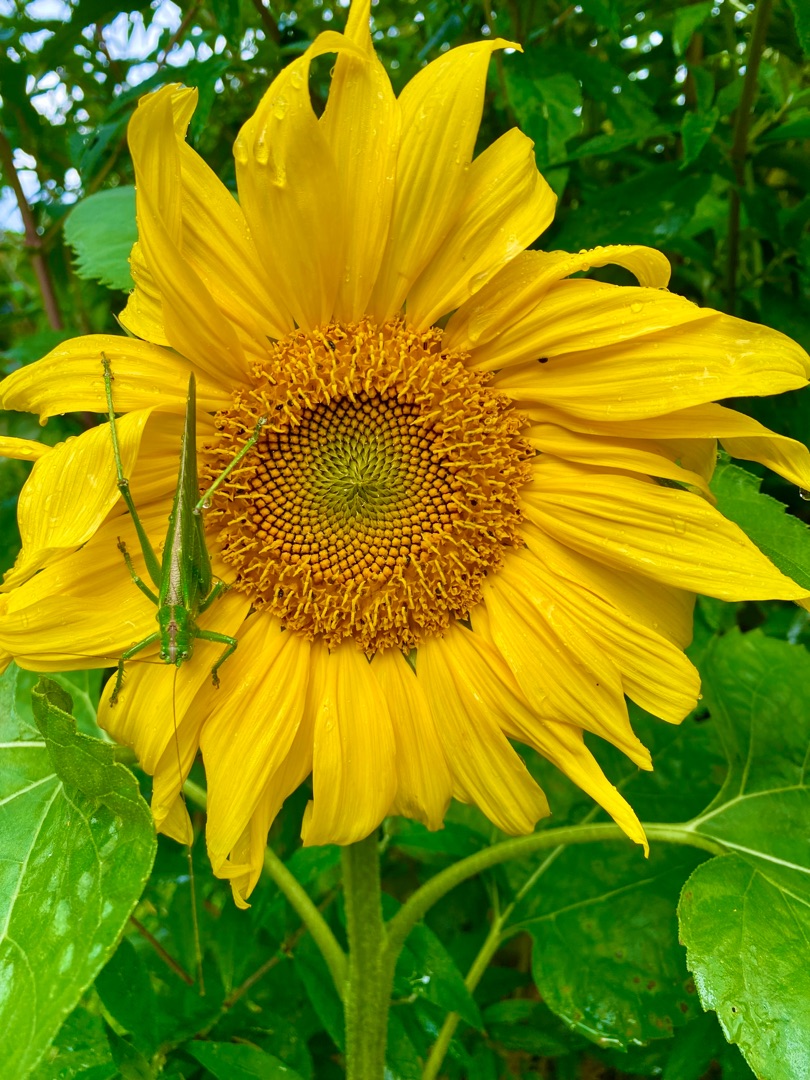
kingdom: Animalia
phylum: Arthropoda
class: Insecta
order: Orthoptera
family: Tettigoniidae
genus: Tettigonia
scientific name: Tettigonia viridissima
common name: Stor grøn løvgræshoppe
